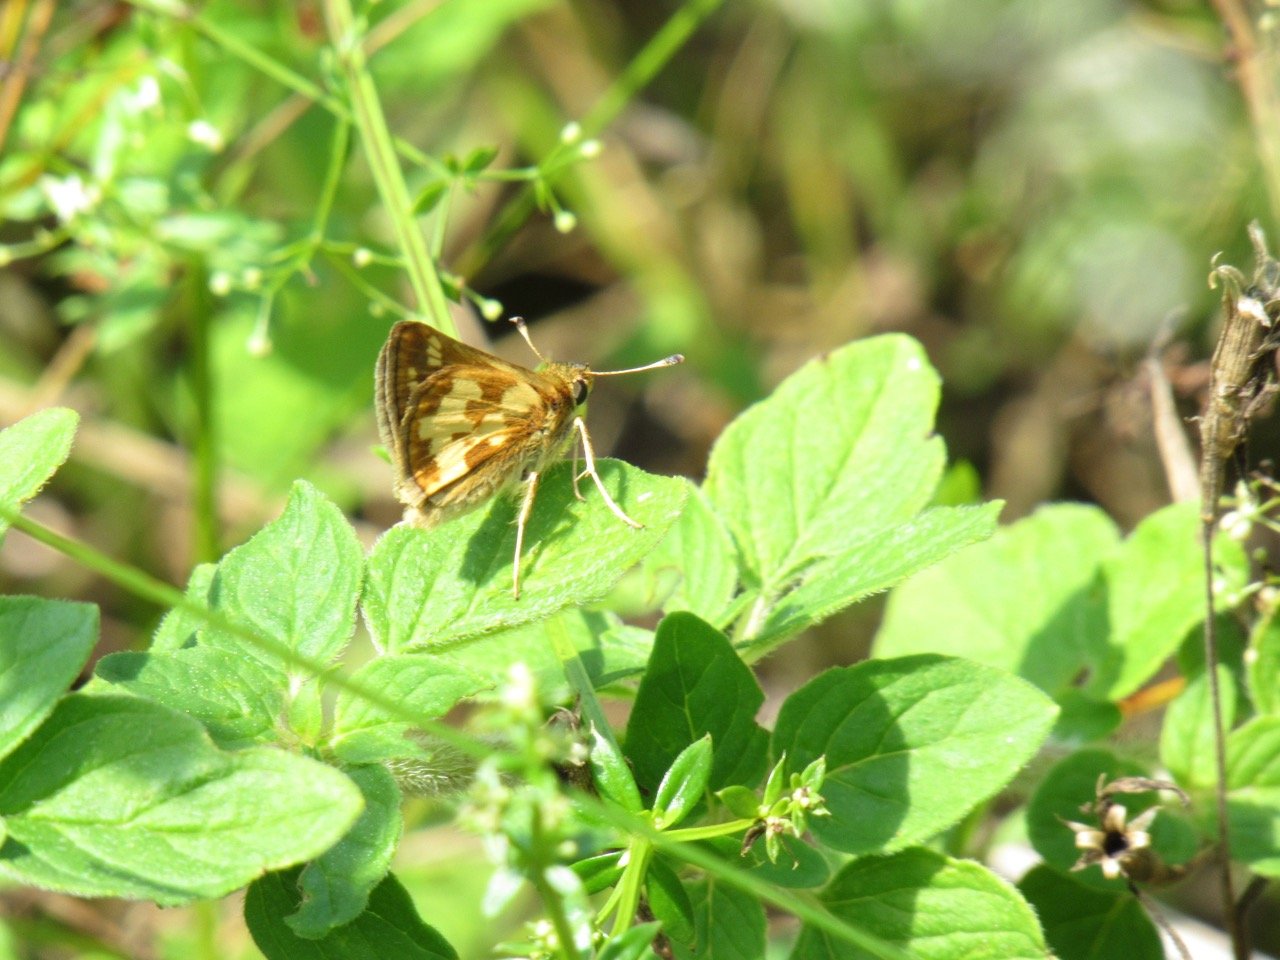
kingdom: Animalia
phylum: Arthropoda
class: Insecta
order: Lepidoptera
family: Hesperiidae
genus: Polites
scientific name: Polites coras
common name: Peck's Skipper
